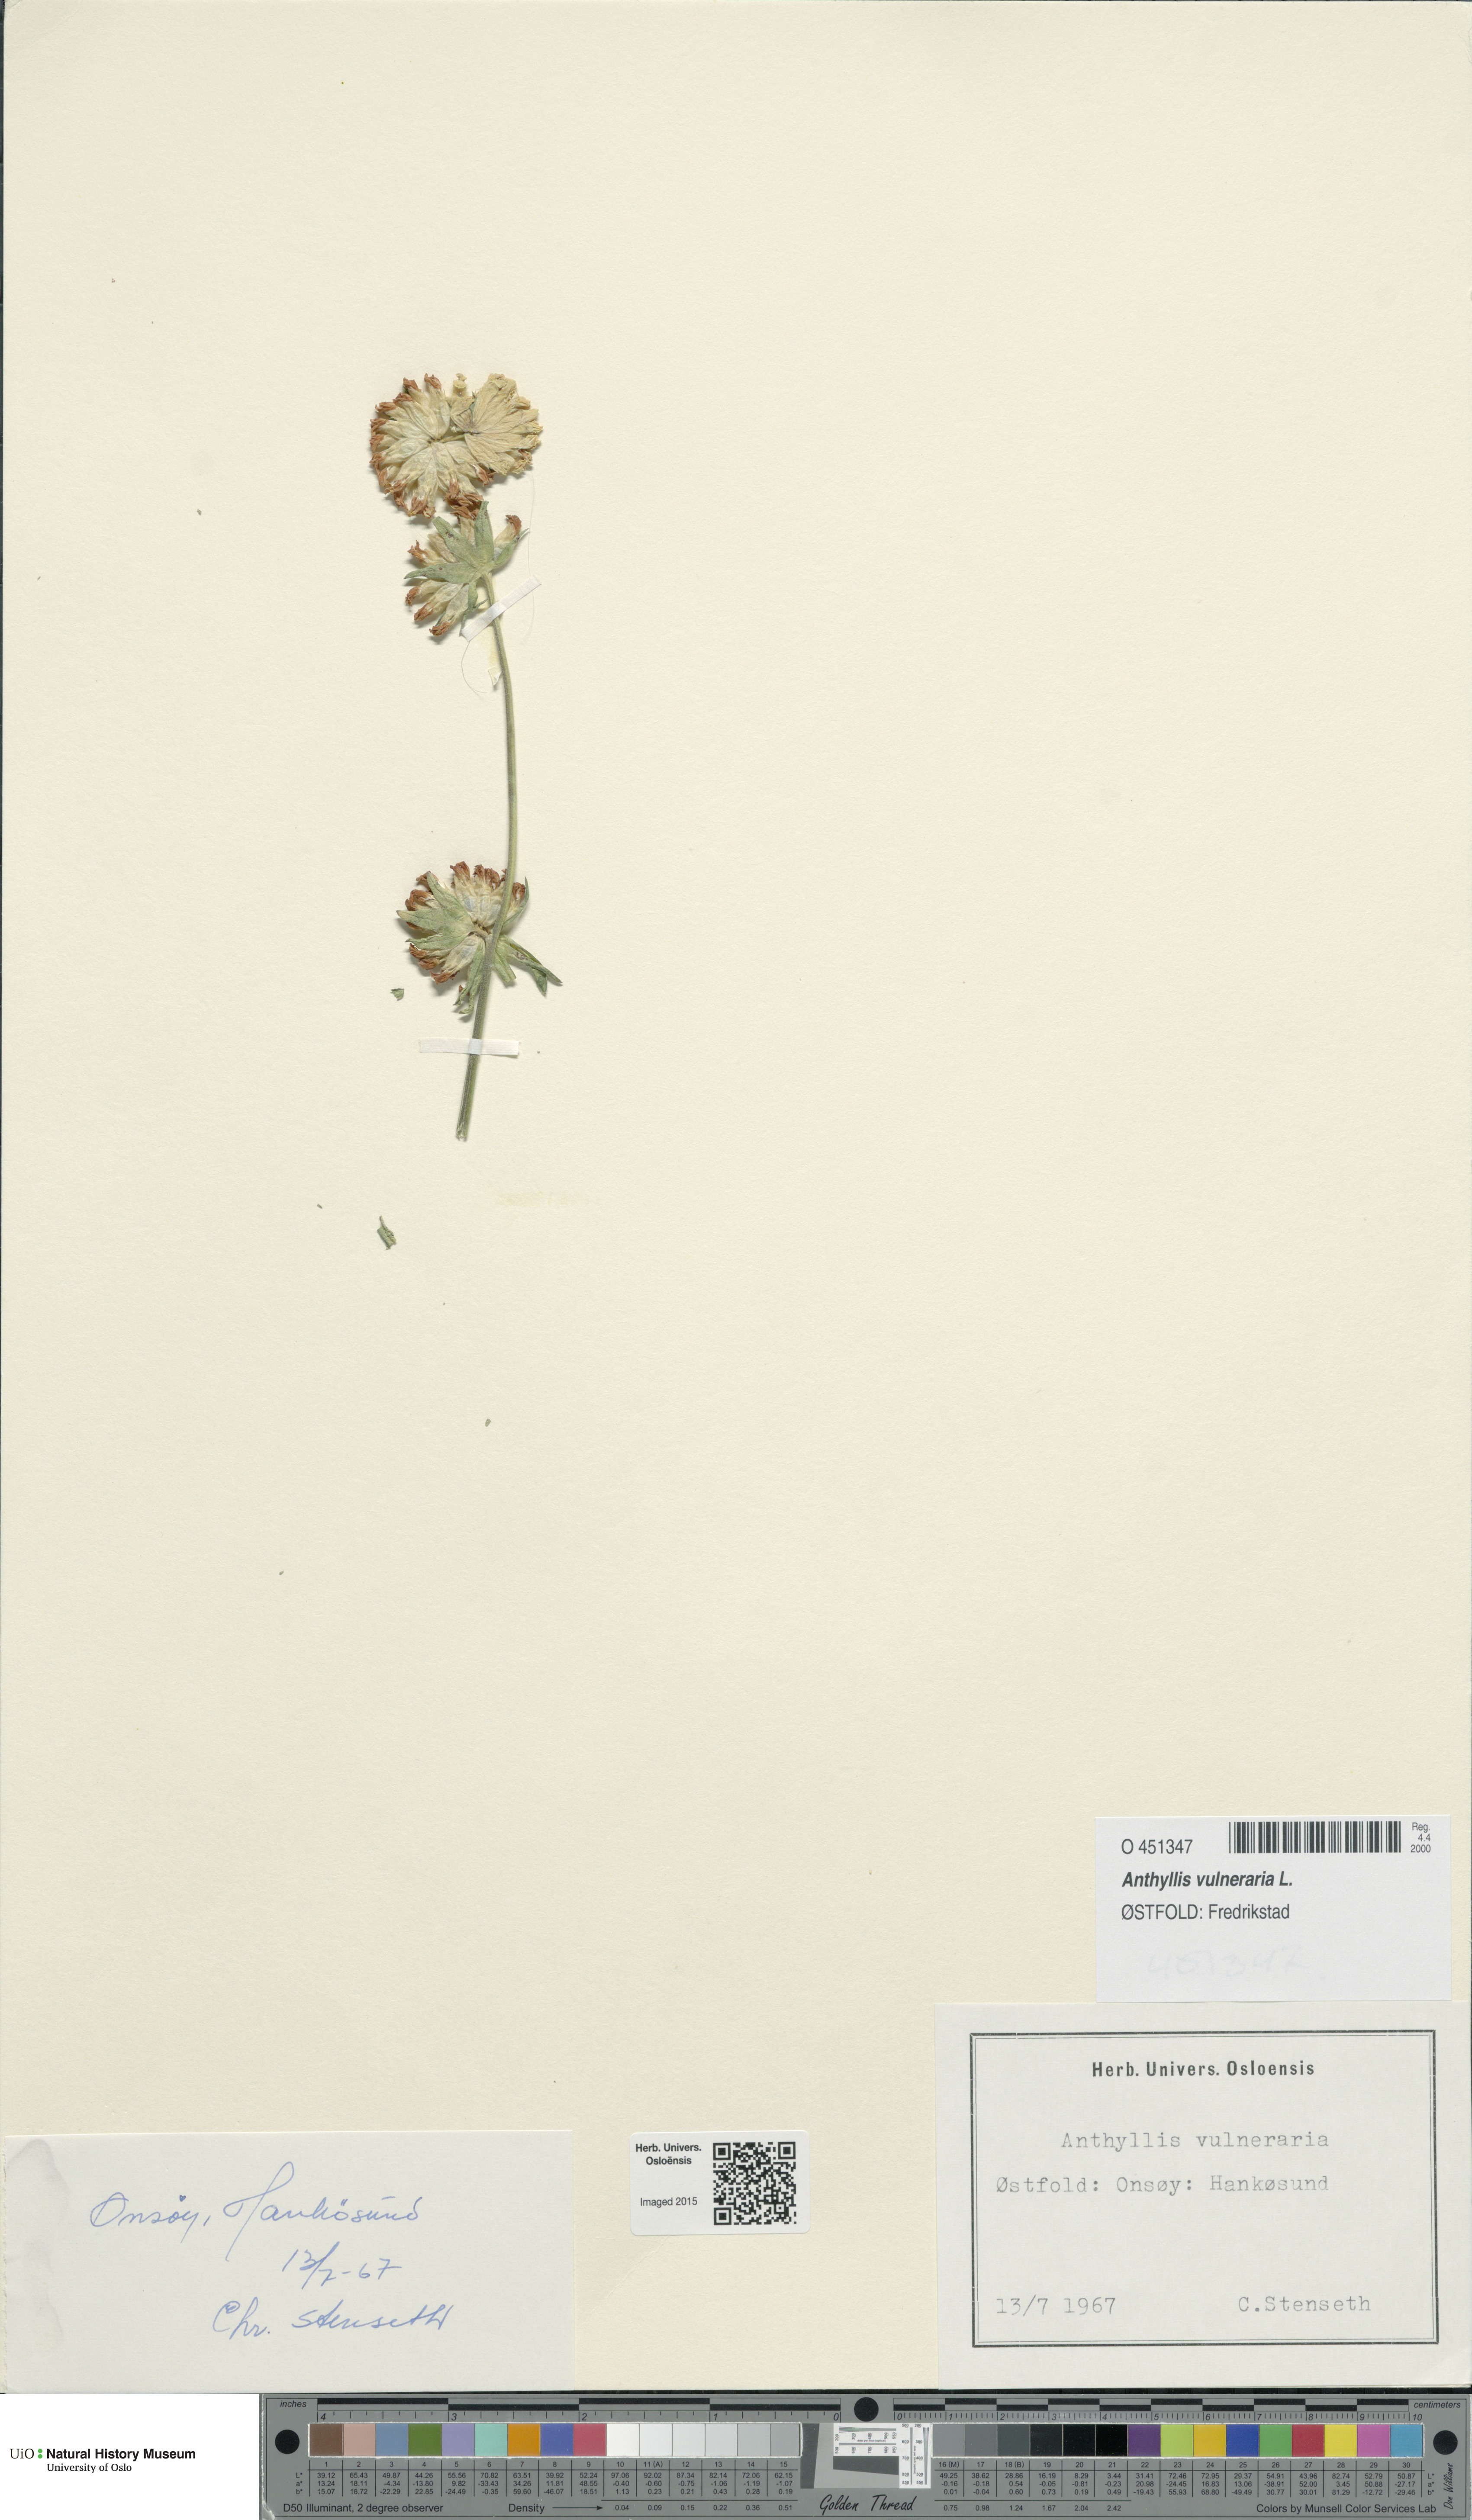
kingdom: Plantae
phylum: Tracheophyta
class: Magnoliopsida
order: Fabales
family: Fabaceae
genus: Anthyllis
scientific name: Anthyllis vulneraria
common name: Kidney vetch
